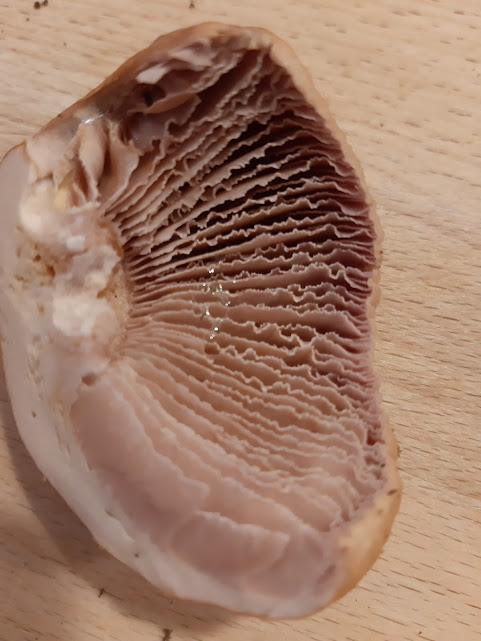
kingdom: Fungi
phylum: Basidiomycota
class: Agaricomycetes
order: Agaricales
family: Cortinariaceae
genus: Cortinarius
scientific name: Cortinarius caperatus
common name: klidhat
